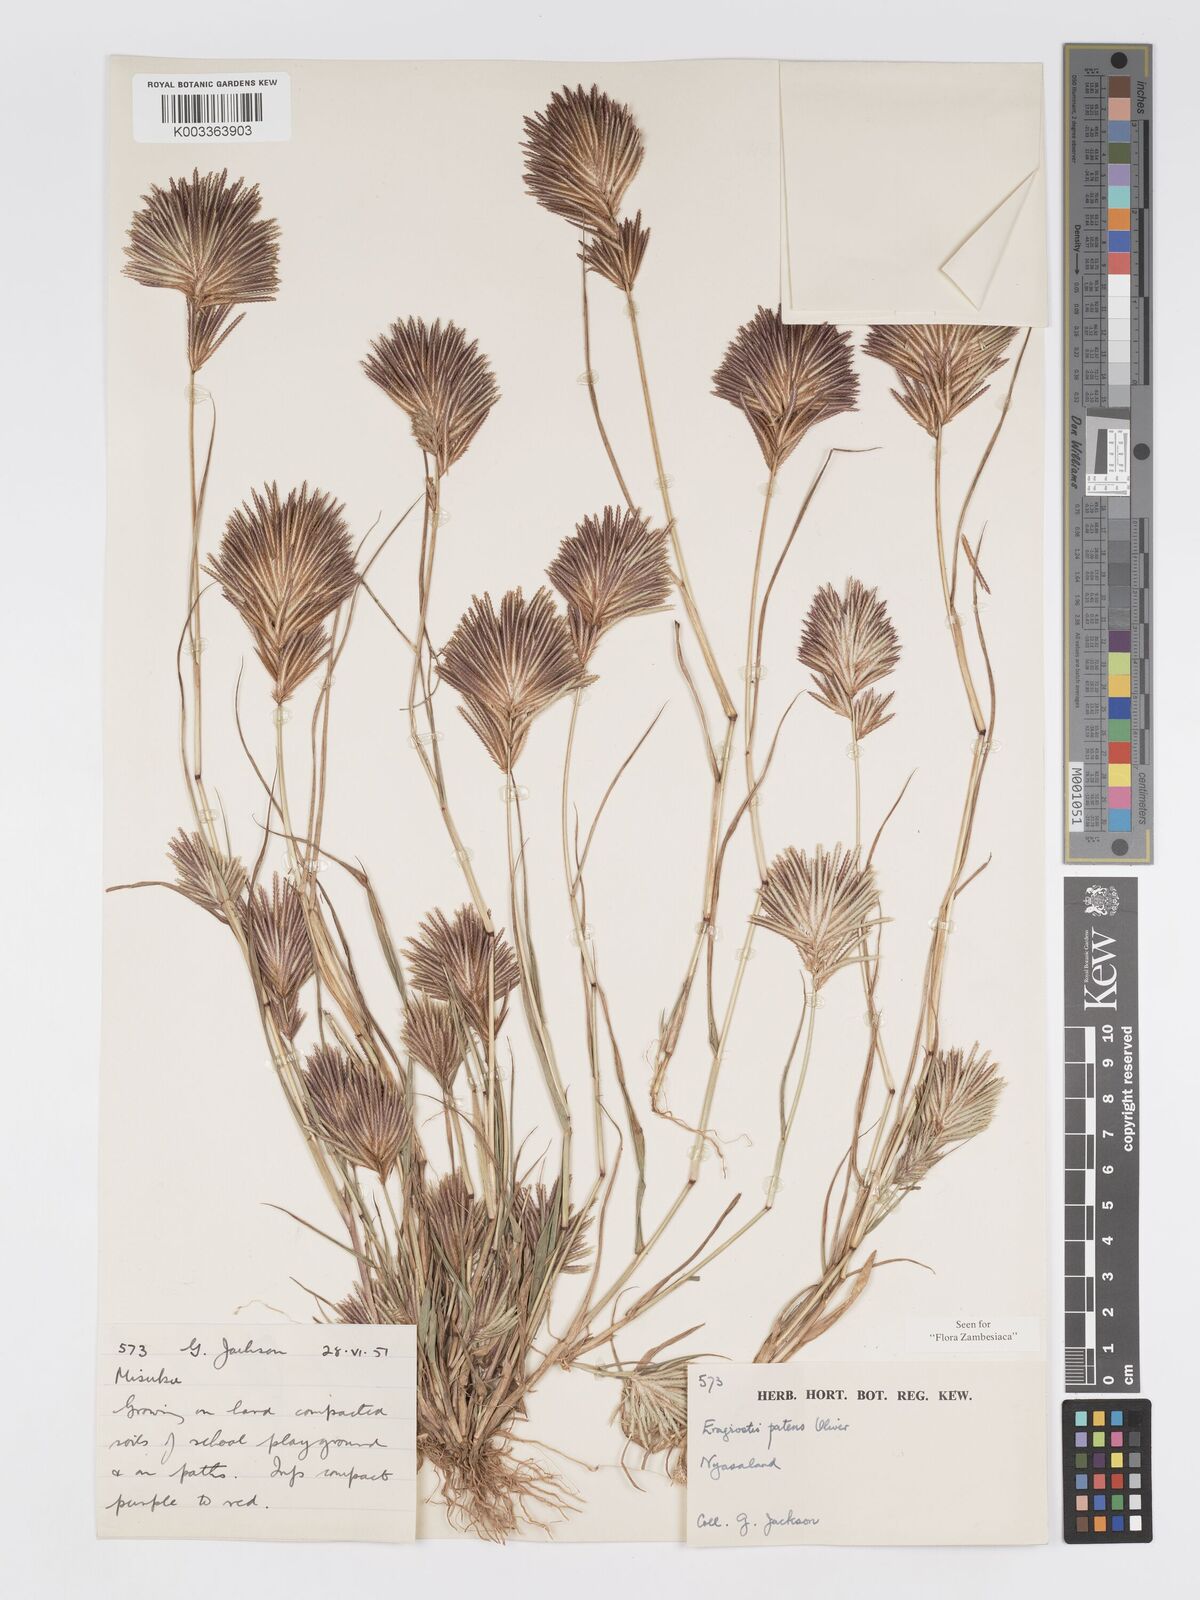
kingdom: Plantae
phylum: Tracheophyta
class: Liliopsida
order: Poales
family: Poaceae
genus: Eragrostis
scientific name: Eragrostis patens
